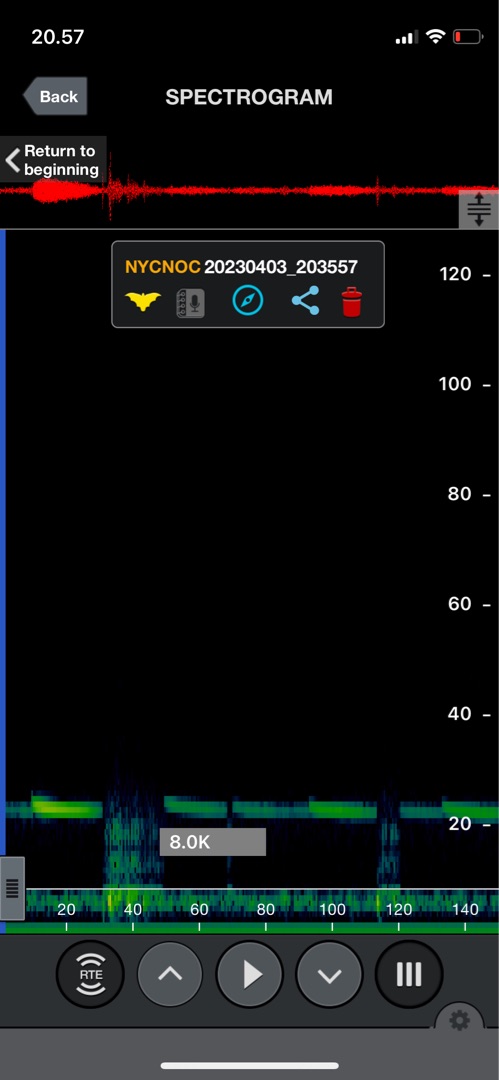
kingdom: Animalia
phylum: Chordata
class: Mammalia
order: Chiroptera
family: Vespertilionidae
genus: Nyctalus
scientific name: Nyctalus noctula
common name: Brunflagermus
